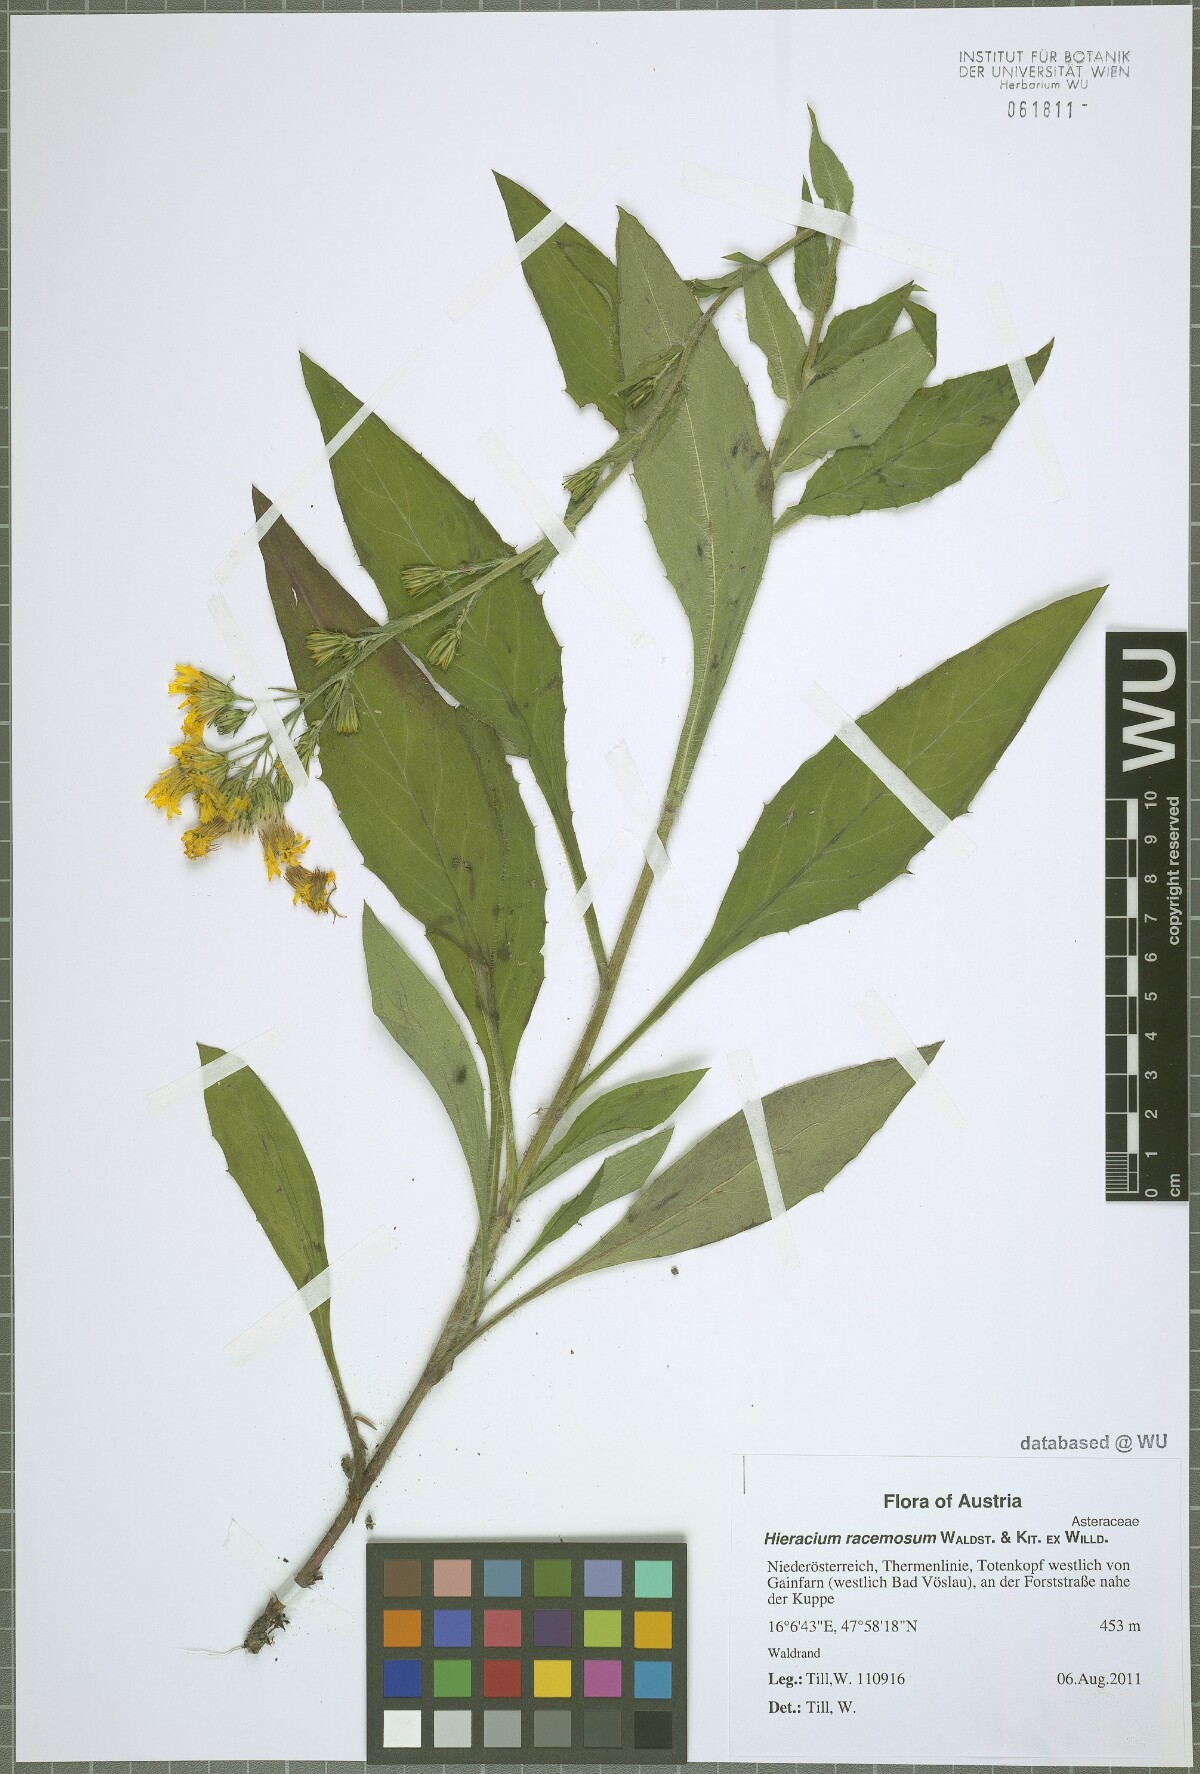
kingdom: Plantae
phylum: Tracheophyta
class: Magnoliopsida
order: Asterales
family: Asteraceae
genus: Hieracium
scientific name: Hieracium racemosum
